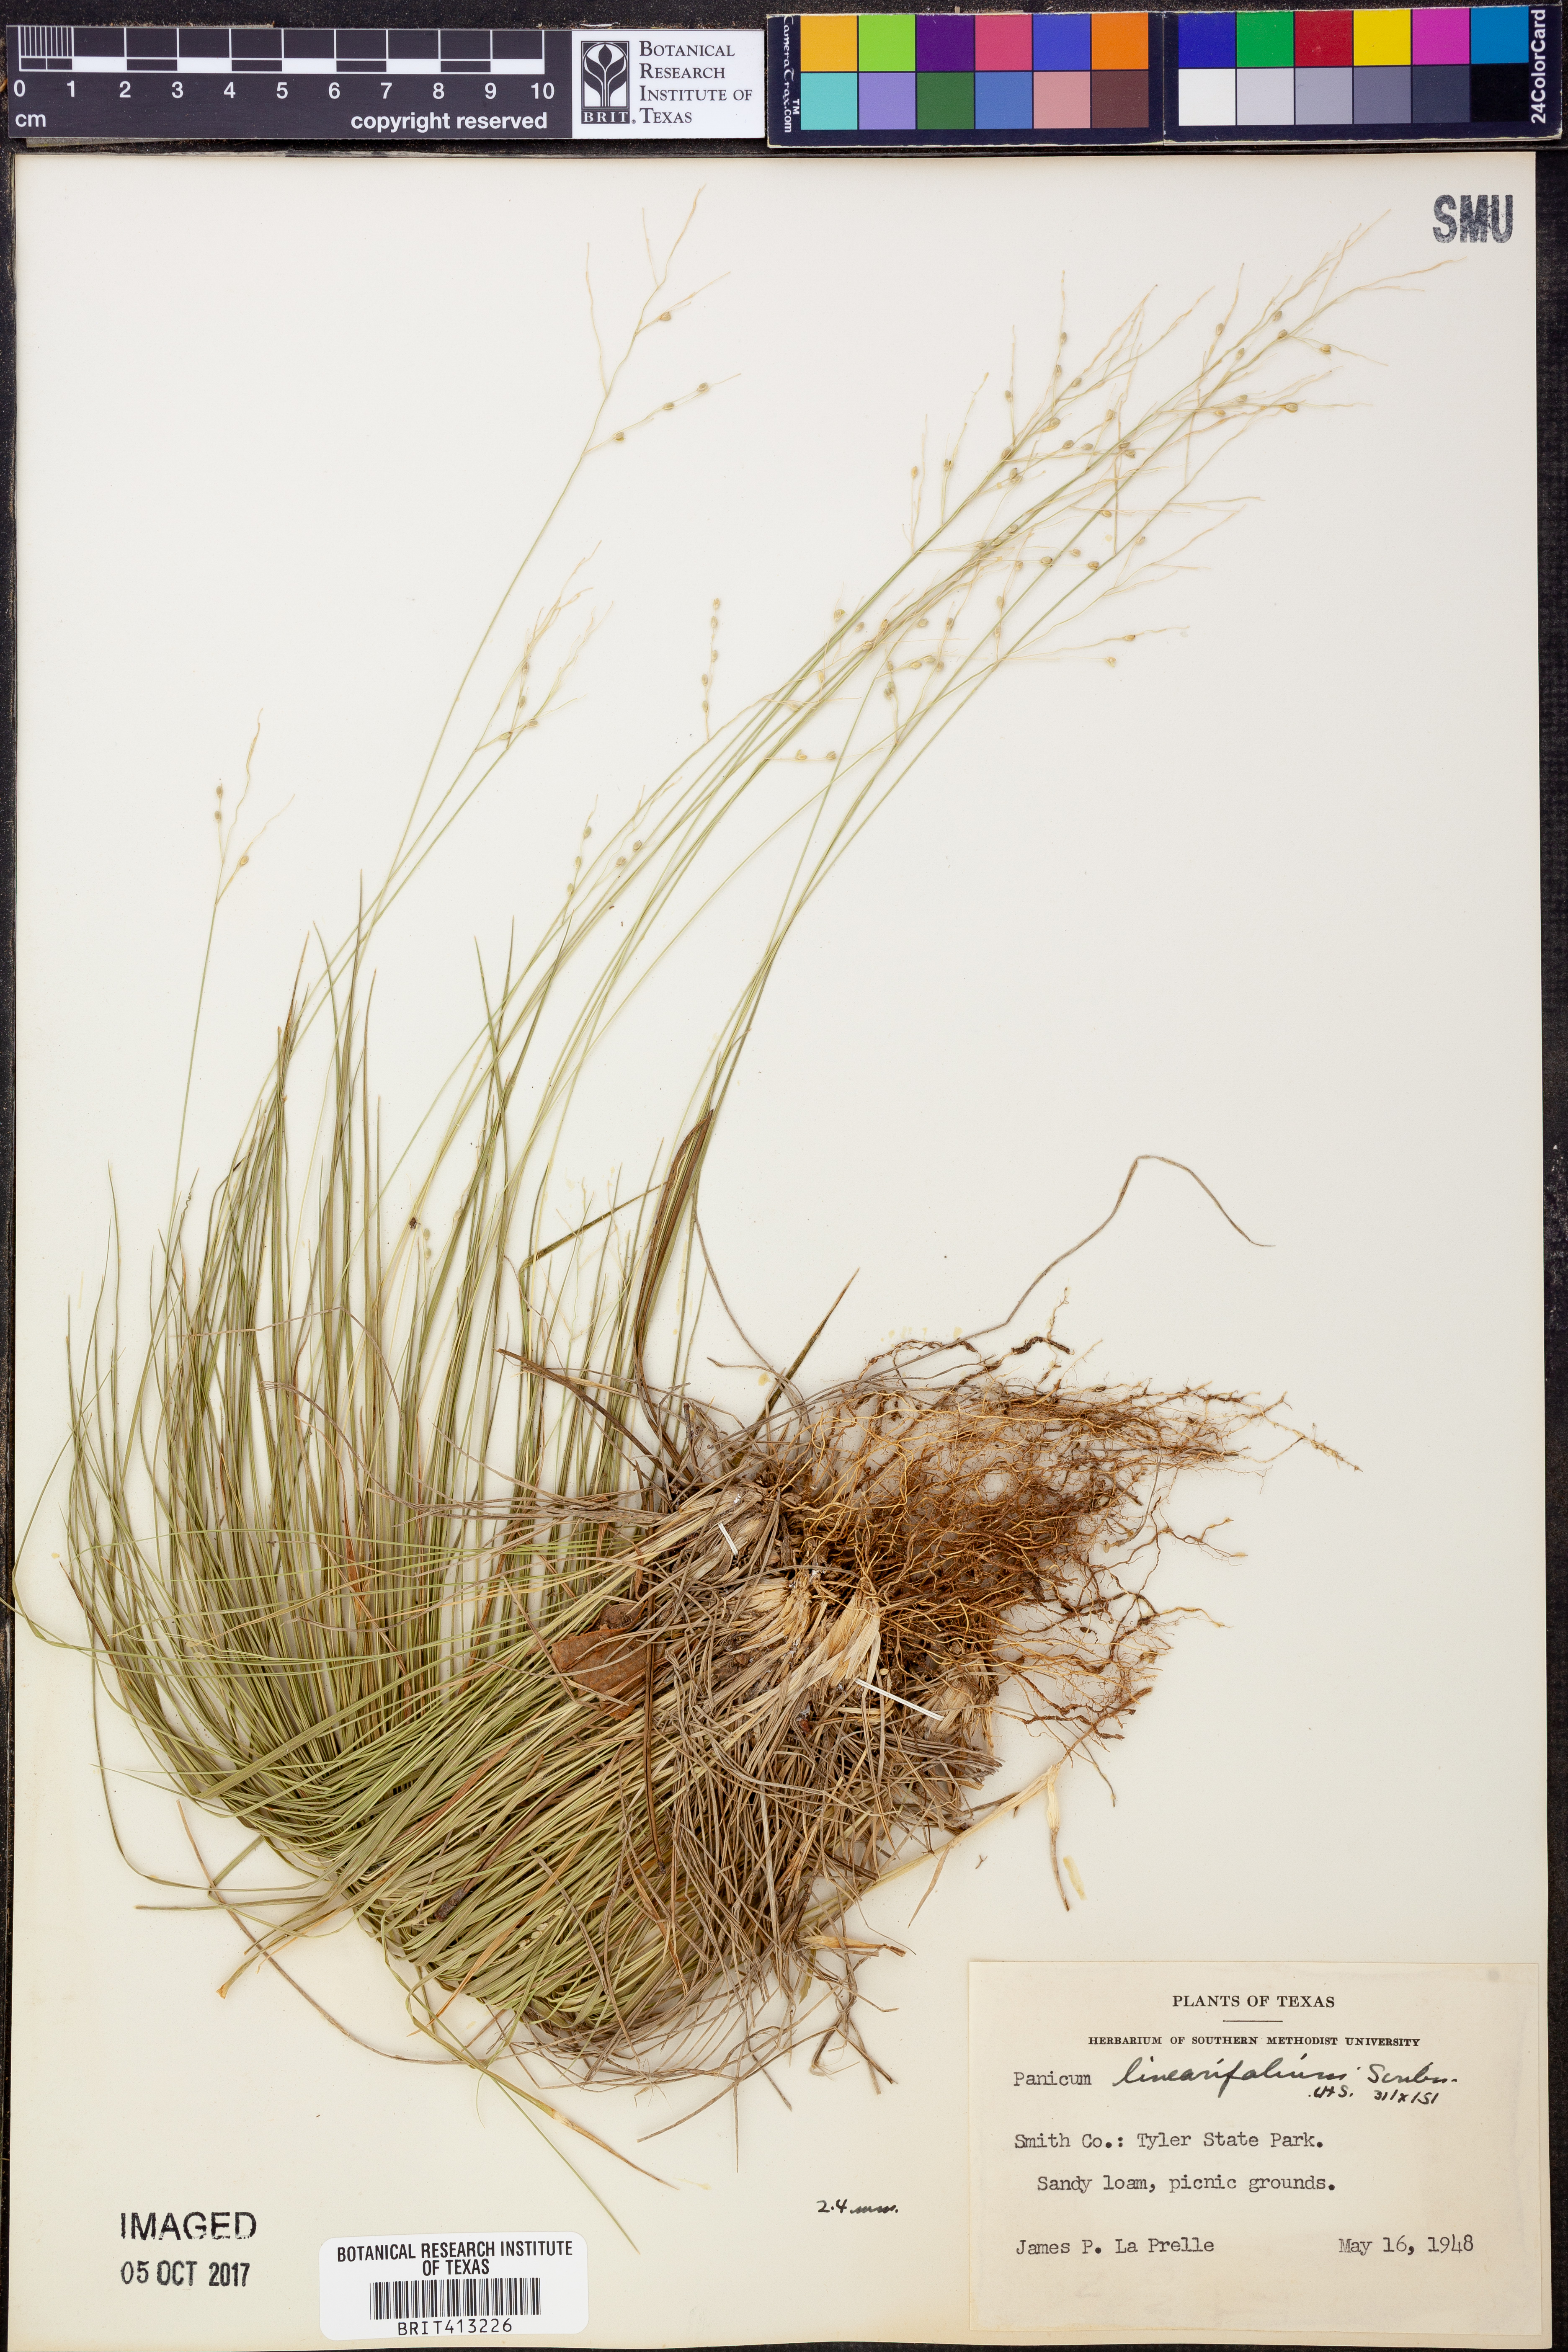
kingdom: Plantae
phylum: Tracheophyta
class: Liliopsida
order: Poales
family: Poaceae
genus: Dichanthelium
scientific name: Dichanthelium linearifolium
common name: Linear-leaved panicgrass
